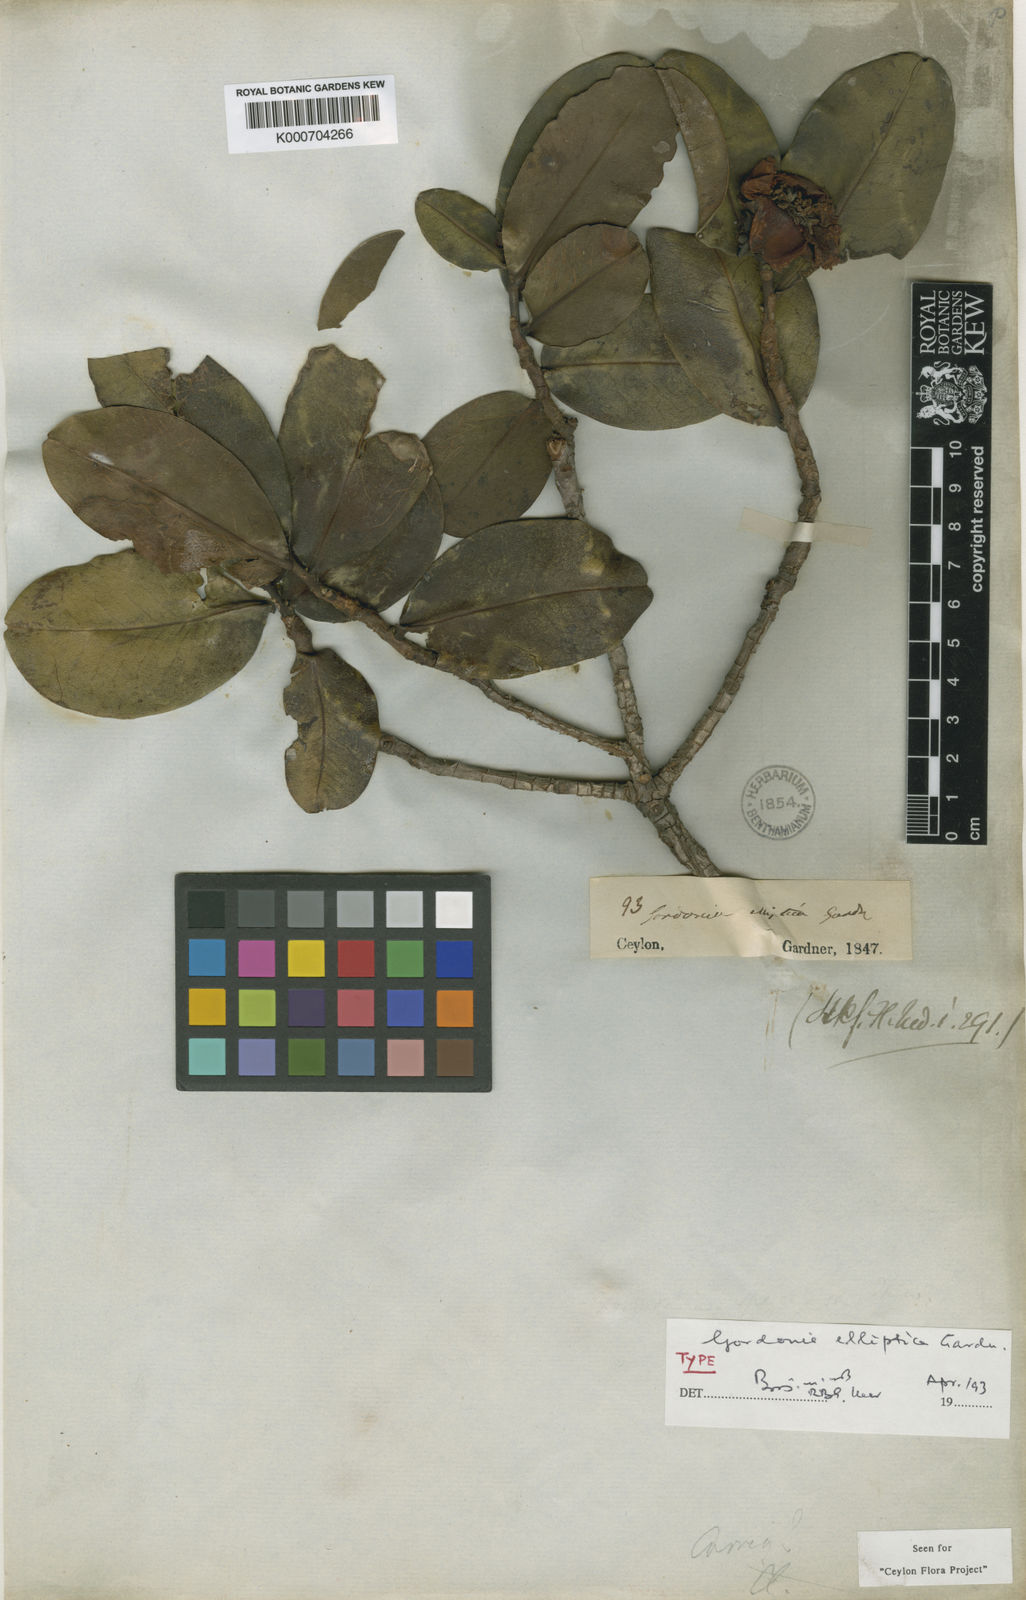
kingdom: Plantae
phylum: Tracheophyta
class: Magnoliopsida
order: Ericales
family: Theaceae
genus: Polyspora
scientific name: Polyspora elliptica
